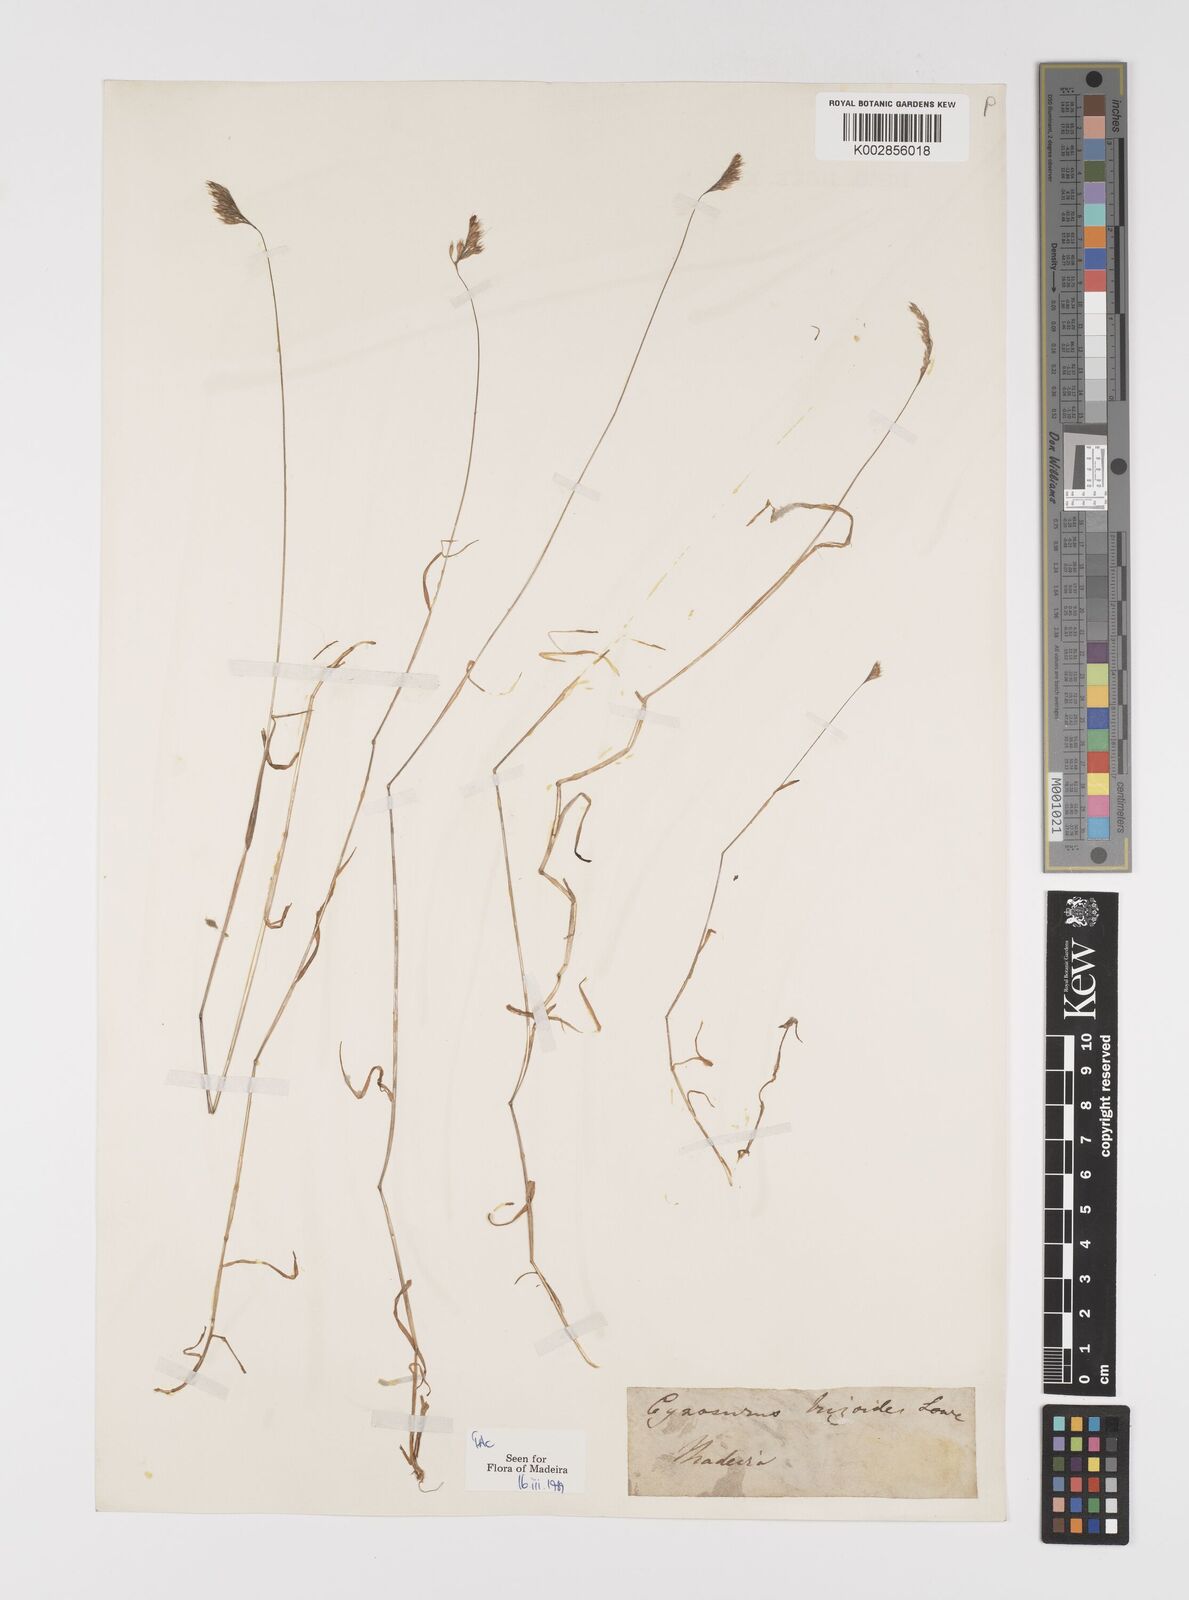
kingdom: Plantae
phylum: Tracheophyta
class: Liliopsida
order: Poales
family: Poaceae
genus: Cynosurus
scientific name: Cynosurus elegans
